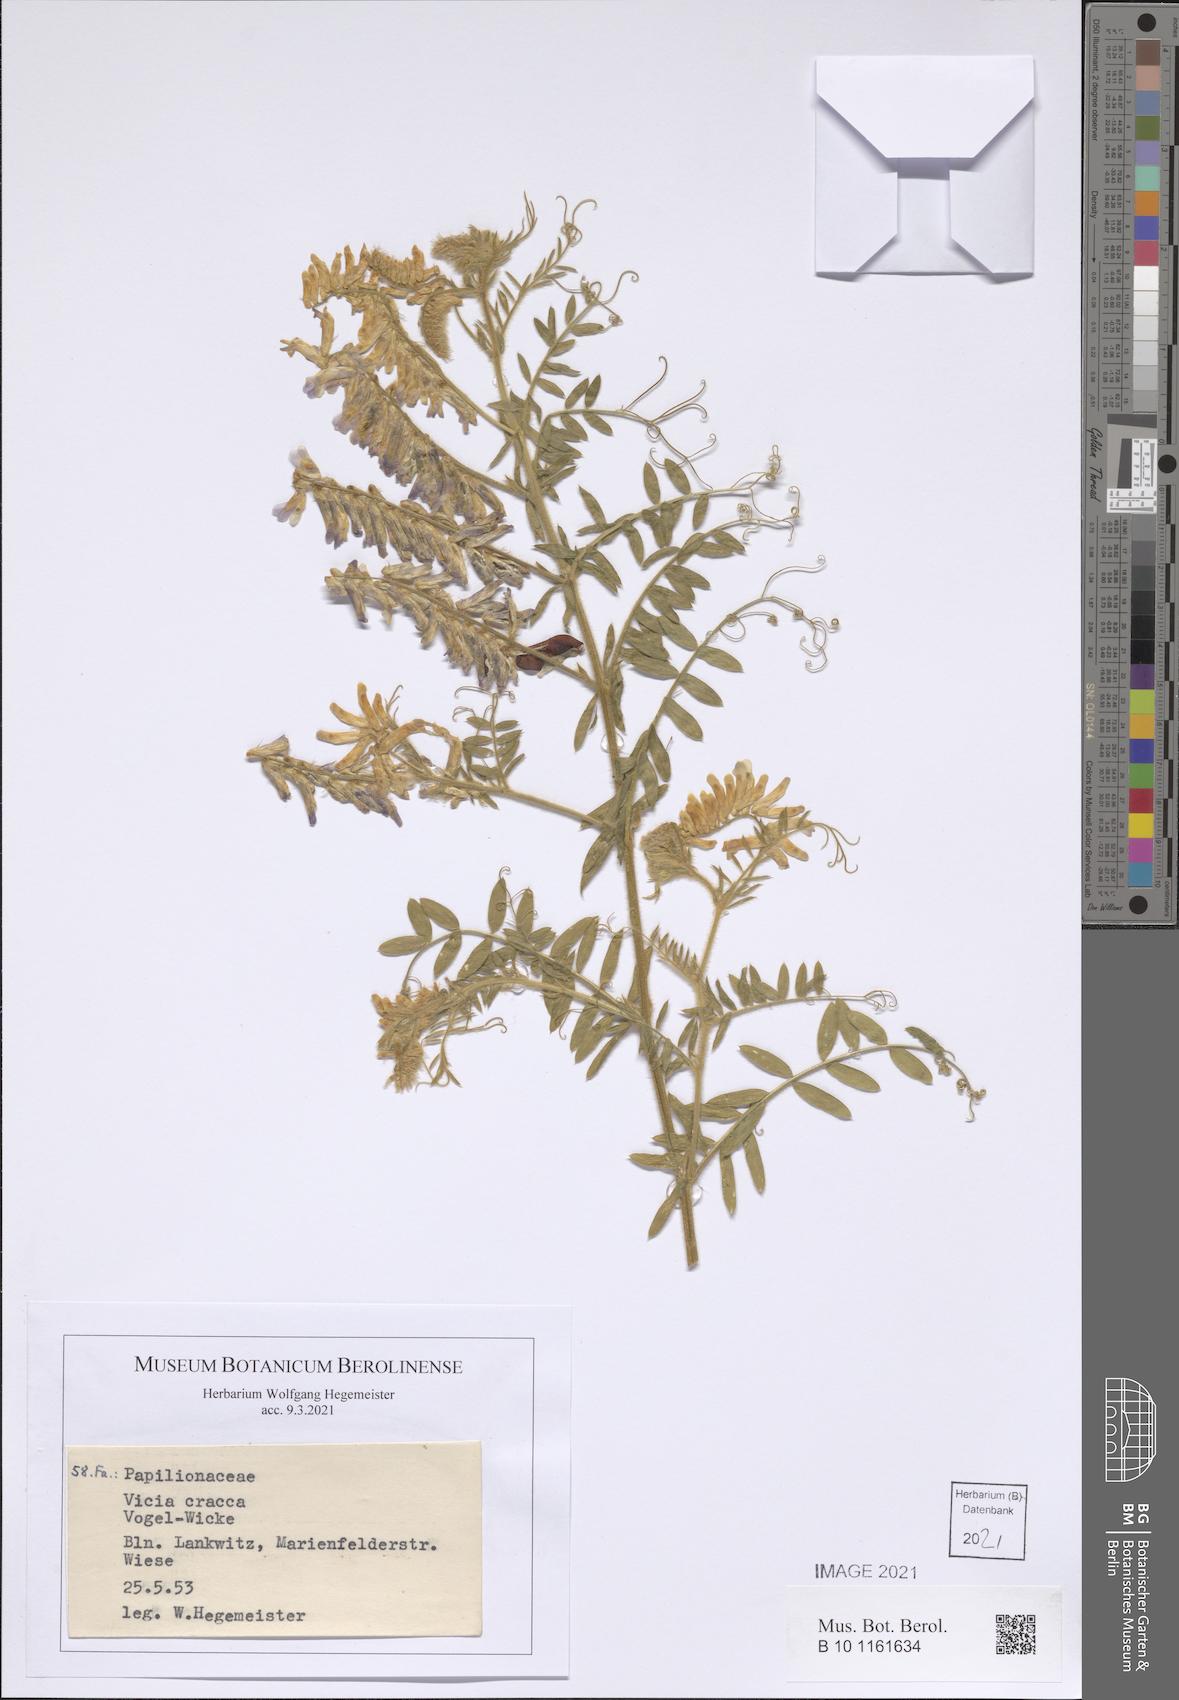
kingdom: Plantae
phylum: Tracheophyta
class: Magnoliopsida
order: Fabales
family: Fabaceae
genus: Vicia
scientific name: Vicia cracca
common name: Bird vetch
